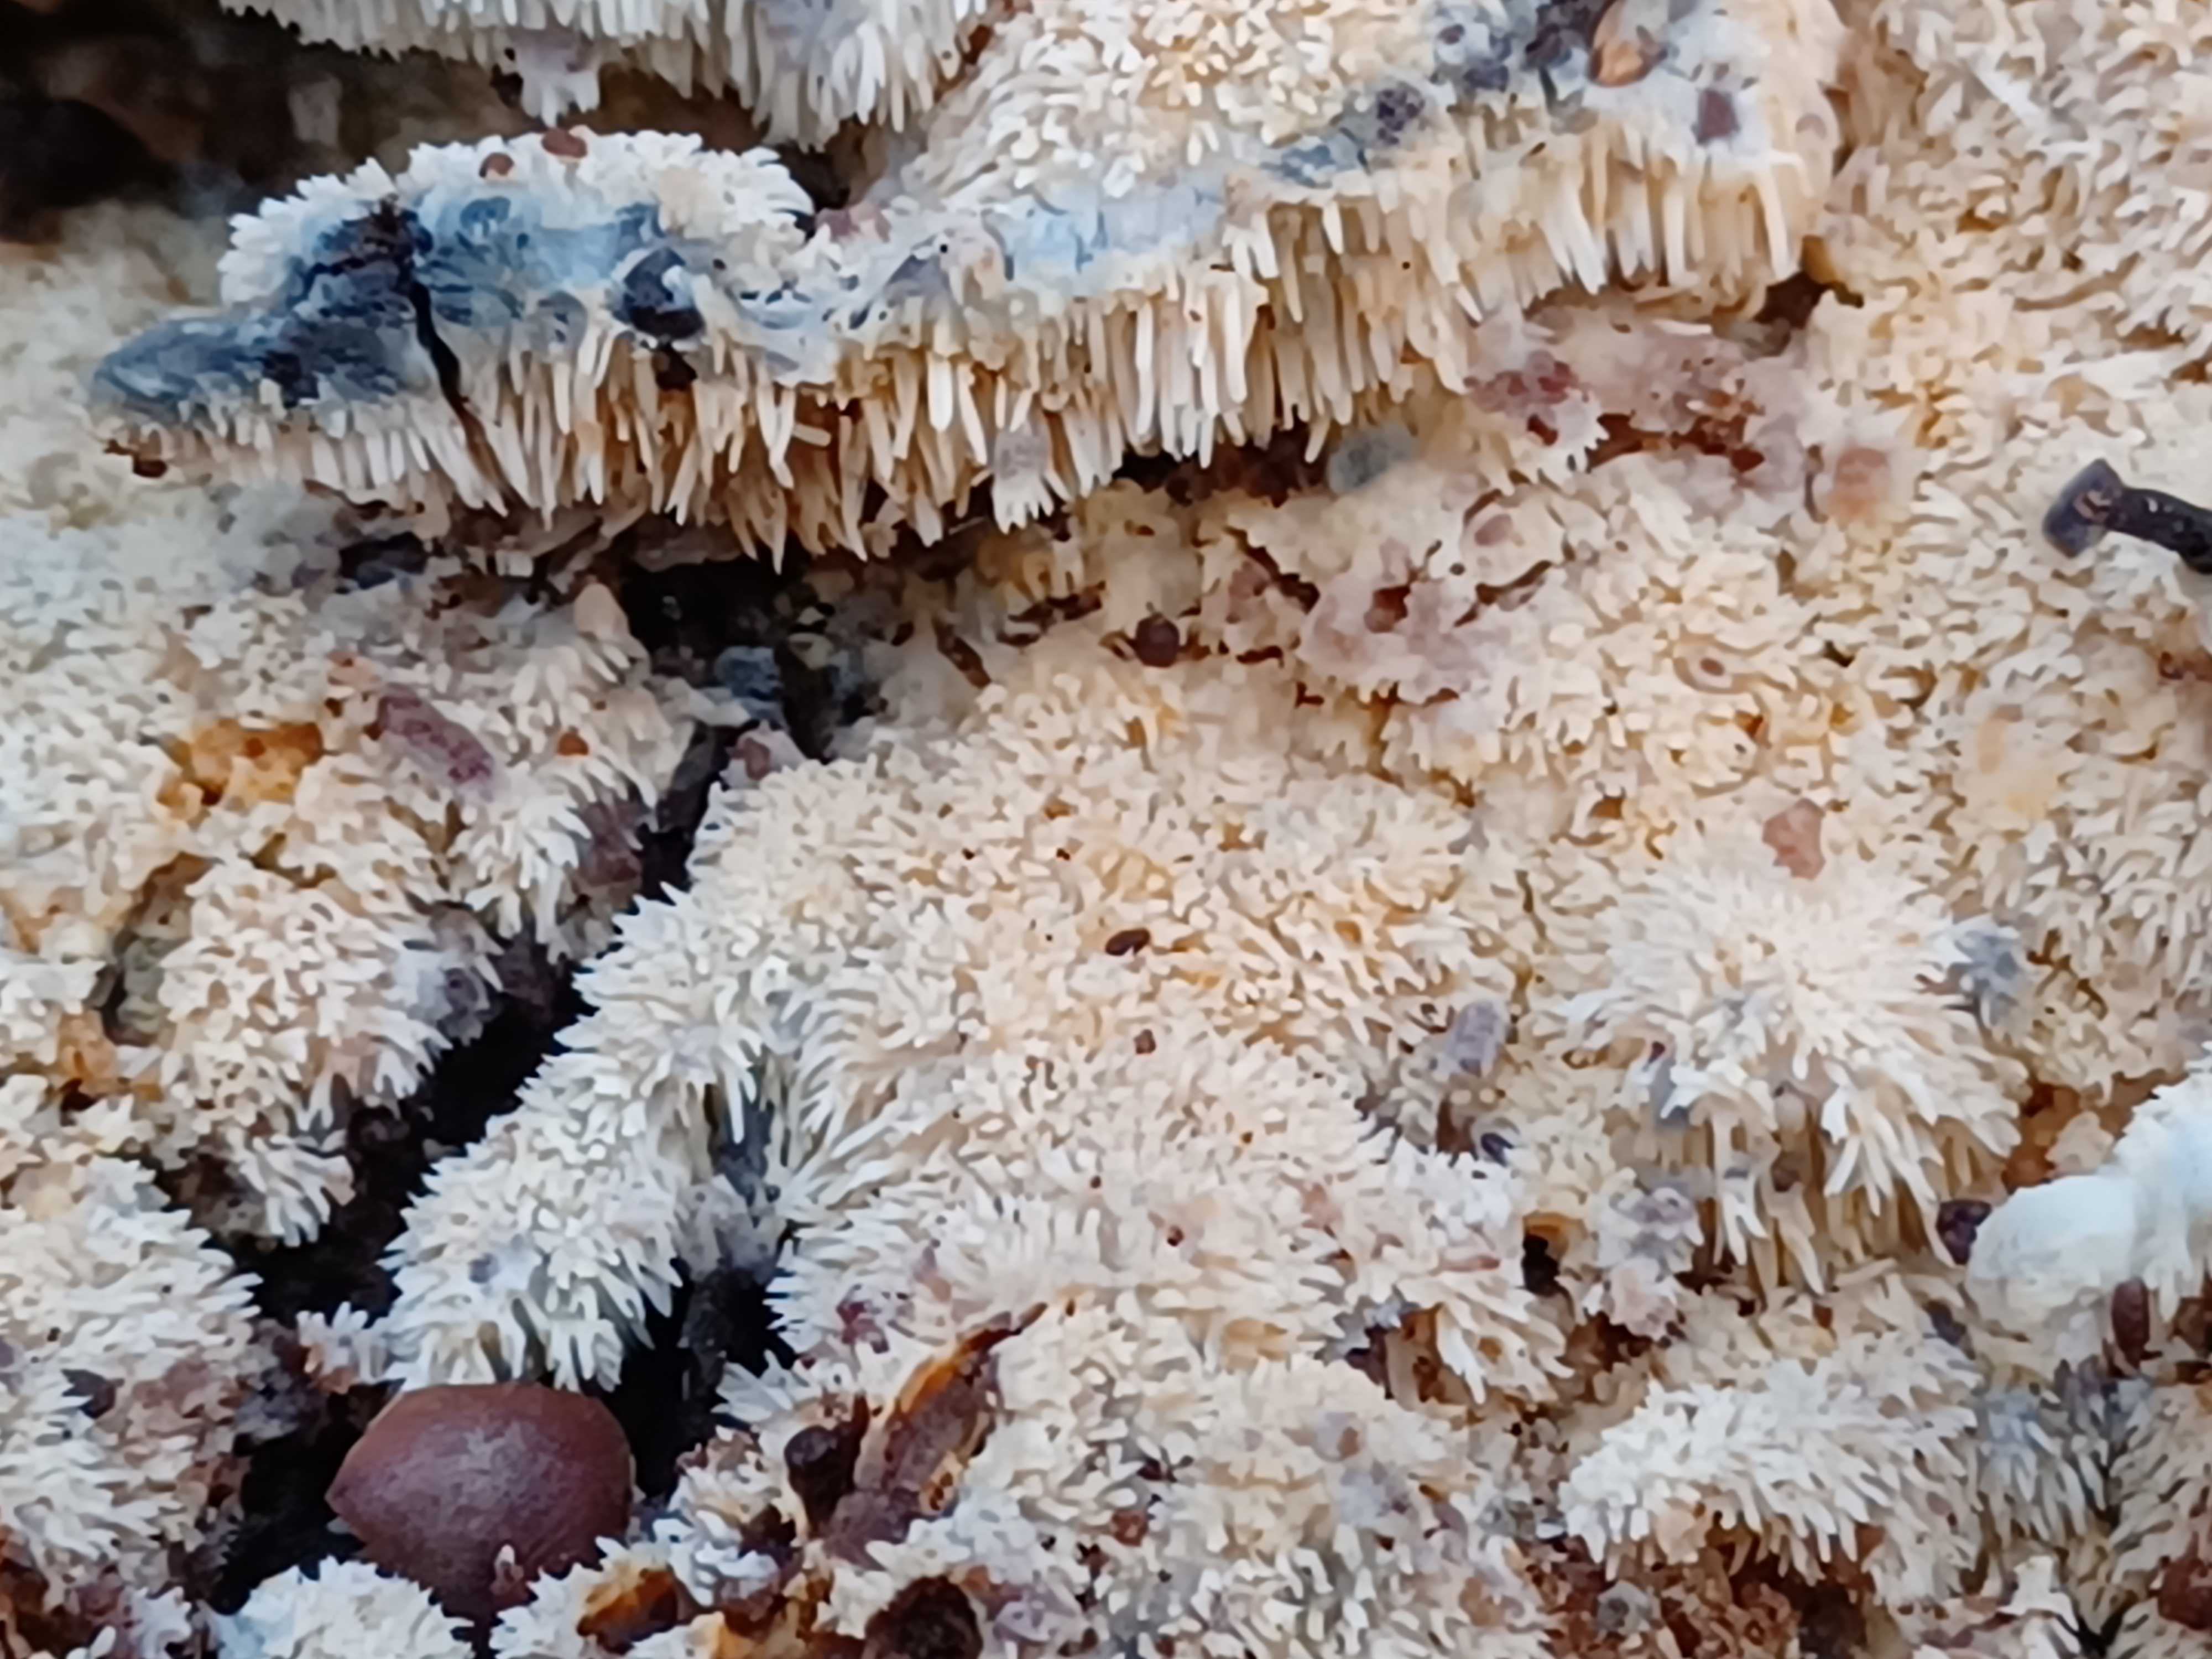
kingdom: Fungi
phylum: Basidiomycota
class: Agaricomycetes
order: Polyporales
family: Meruliaceae
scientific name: Meruliaceae
